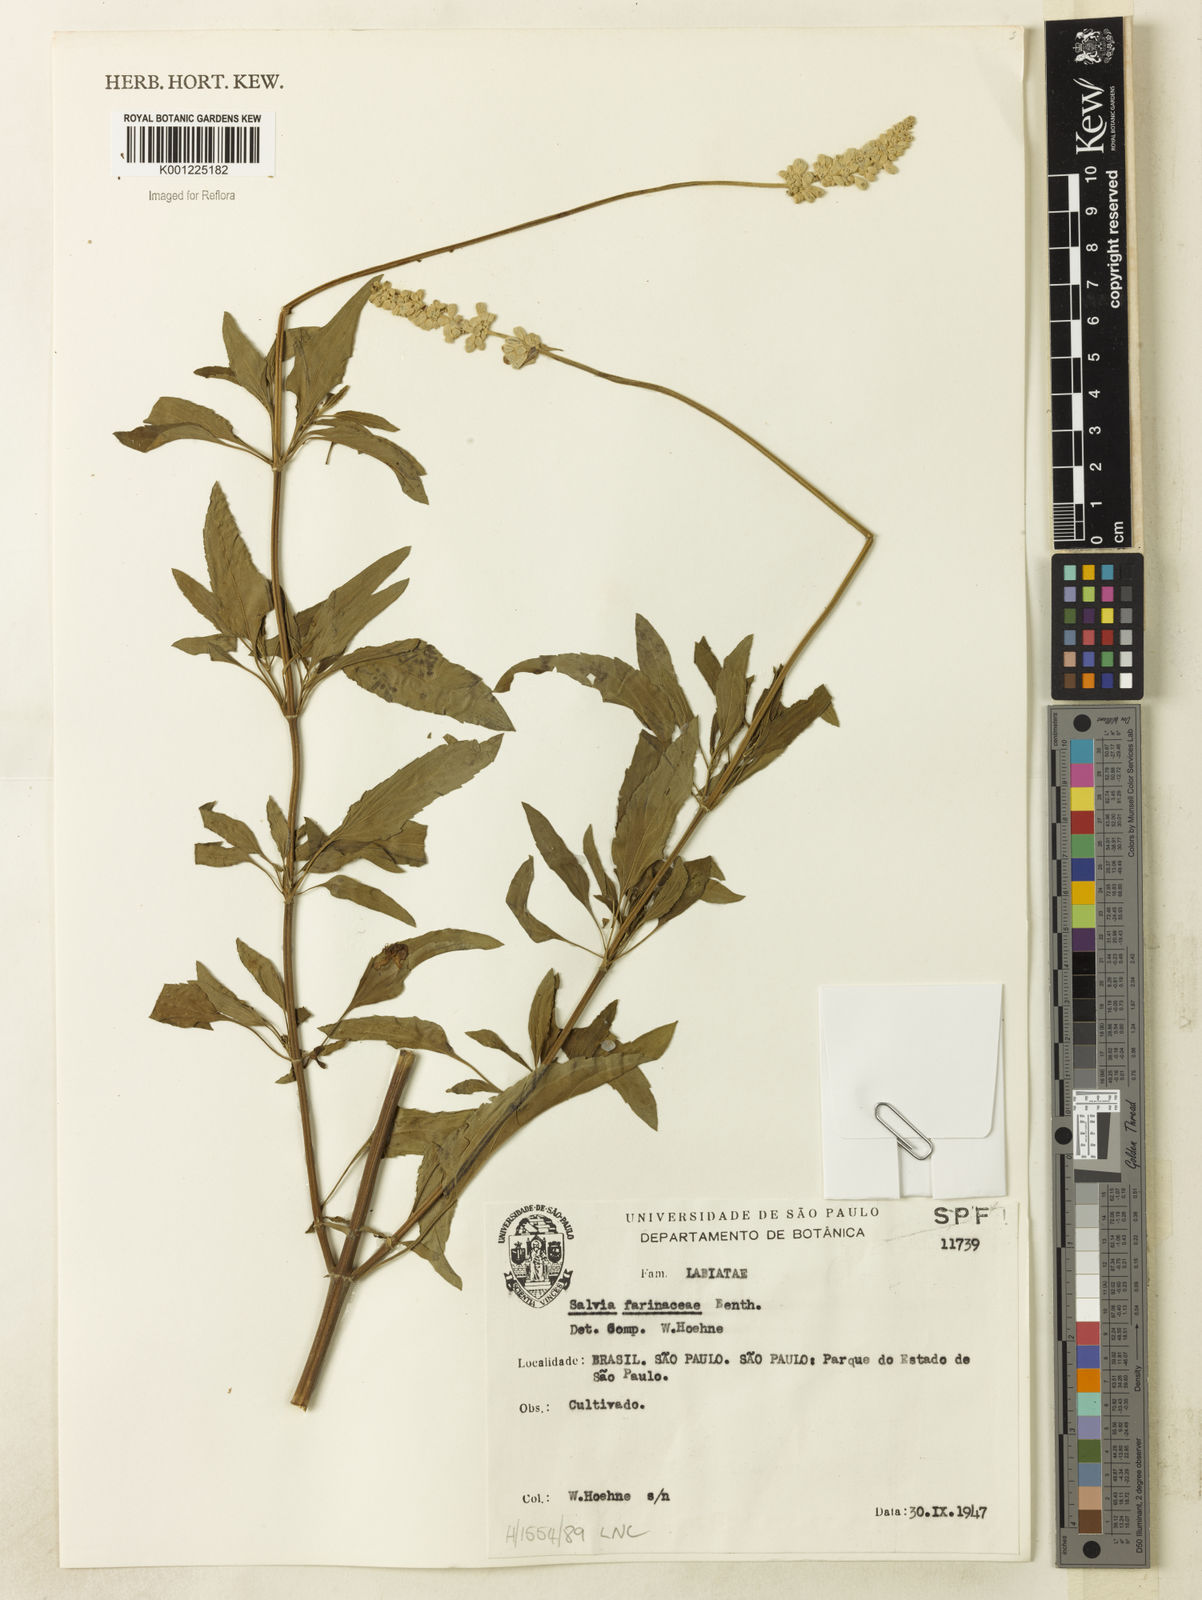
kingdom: Plantae
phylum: Tracheophyta
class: Magnoliopsida
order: Lamiales
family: Lamiaceae
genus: Salvia
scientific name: Salvia farinacea
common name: Mealy sage
